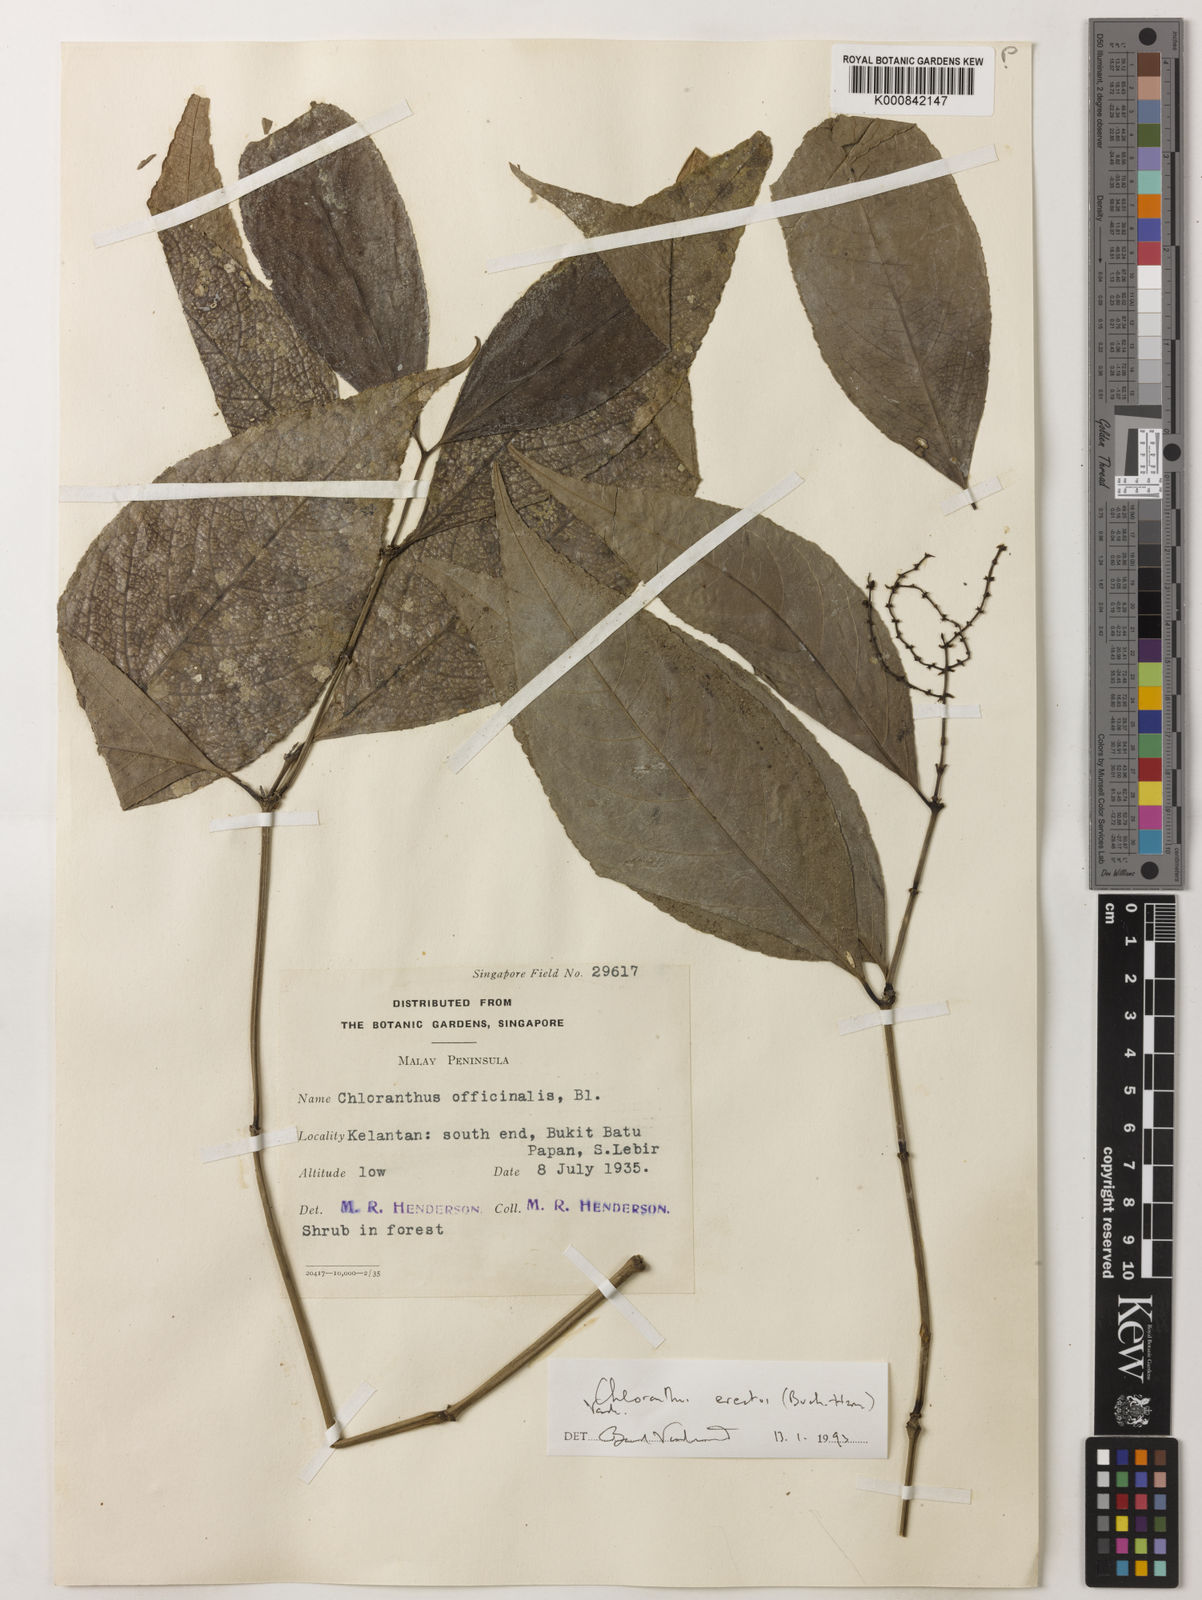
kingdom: Plantae
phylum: Tracheophyta
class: Magnoliopsida
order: Chloranthales
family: Chloranthaceae
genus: Chloranthus
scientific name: Chloranthus
